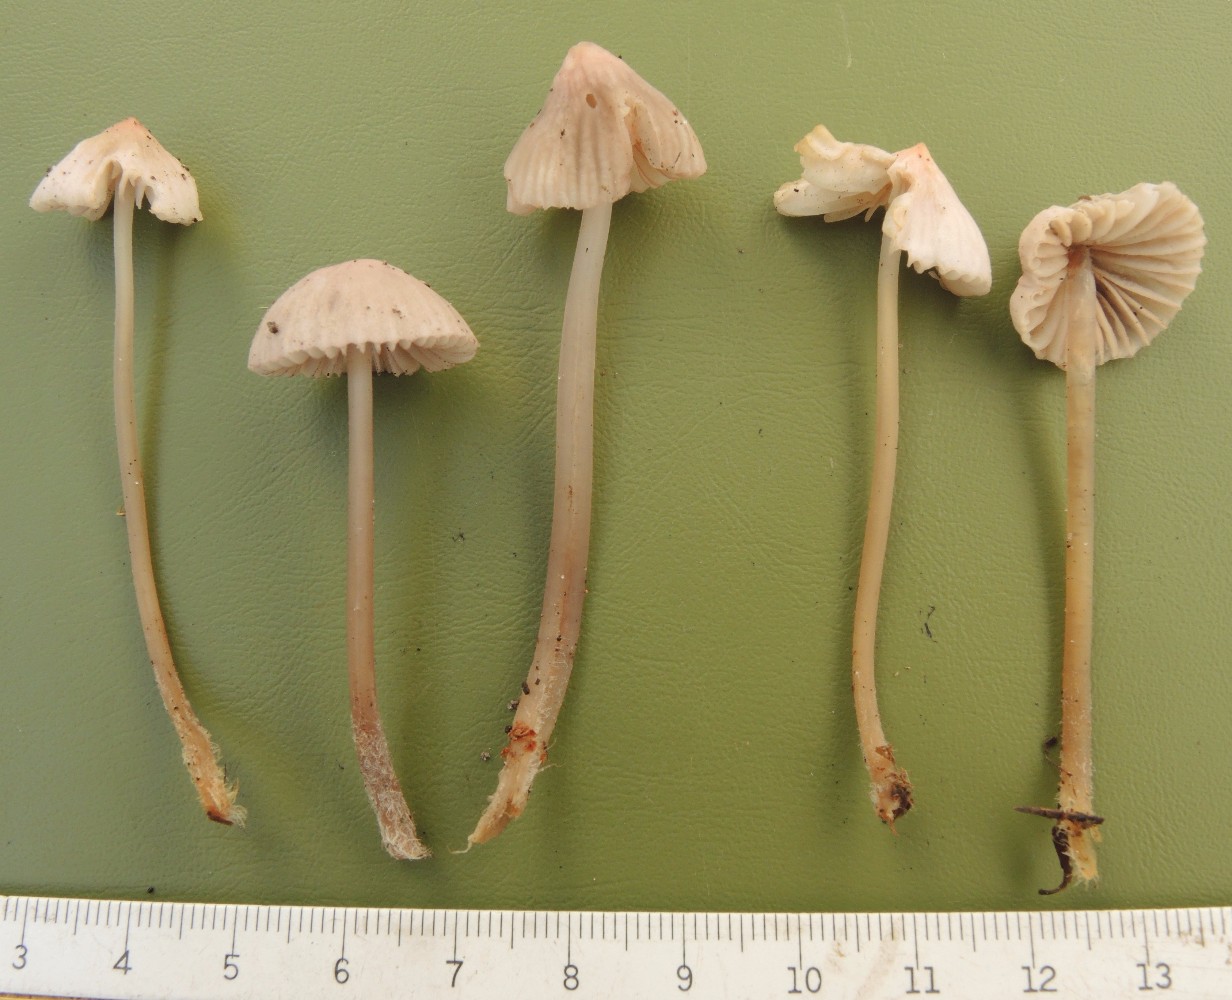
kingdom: Fungi
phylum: Basidiomycota
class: Agaricomycetes
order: Agaricales
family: Mycenaceae
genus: Mycena
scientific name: Mycena capillaripes
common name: nåle-huesvamp
